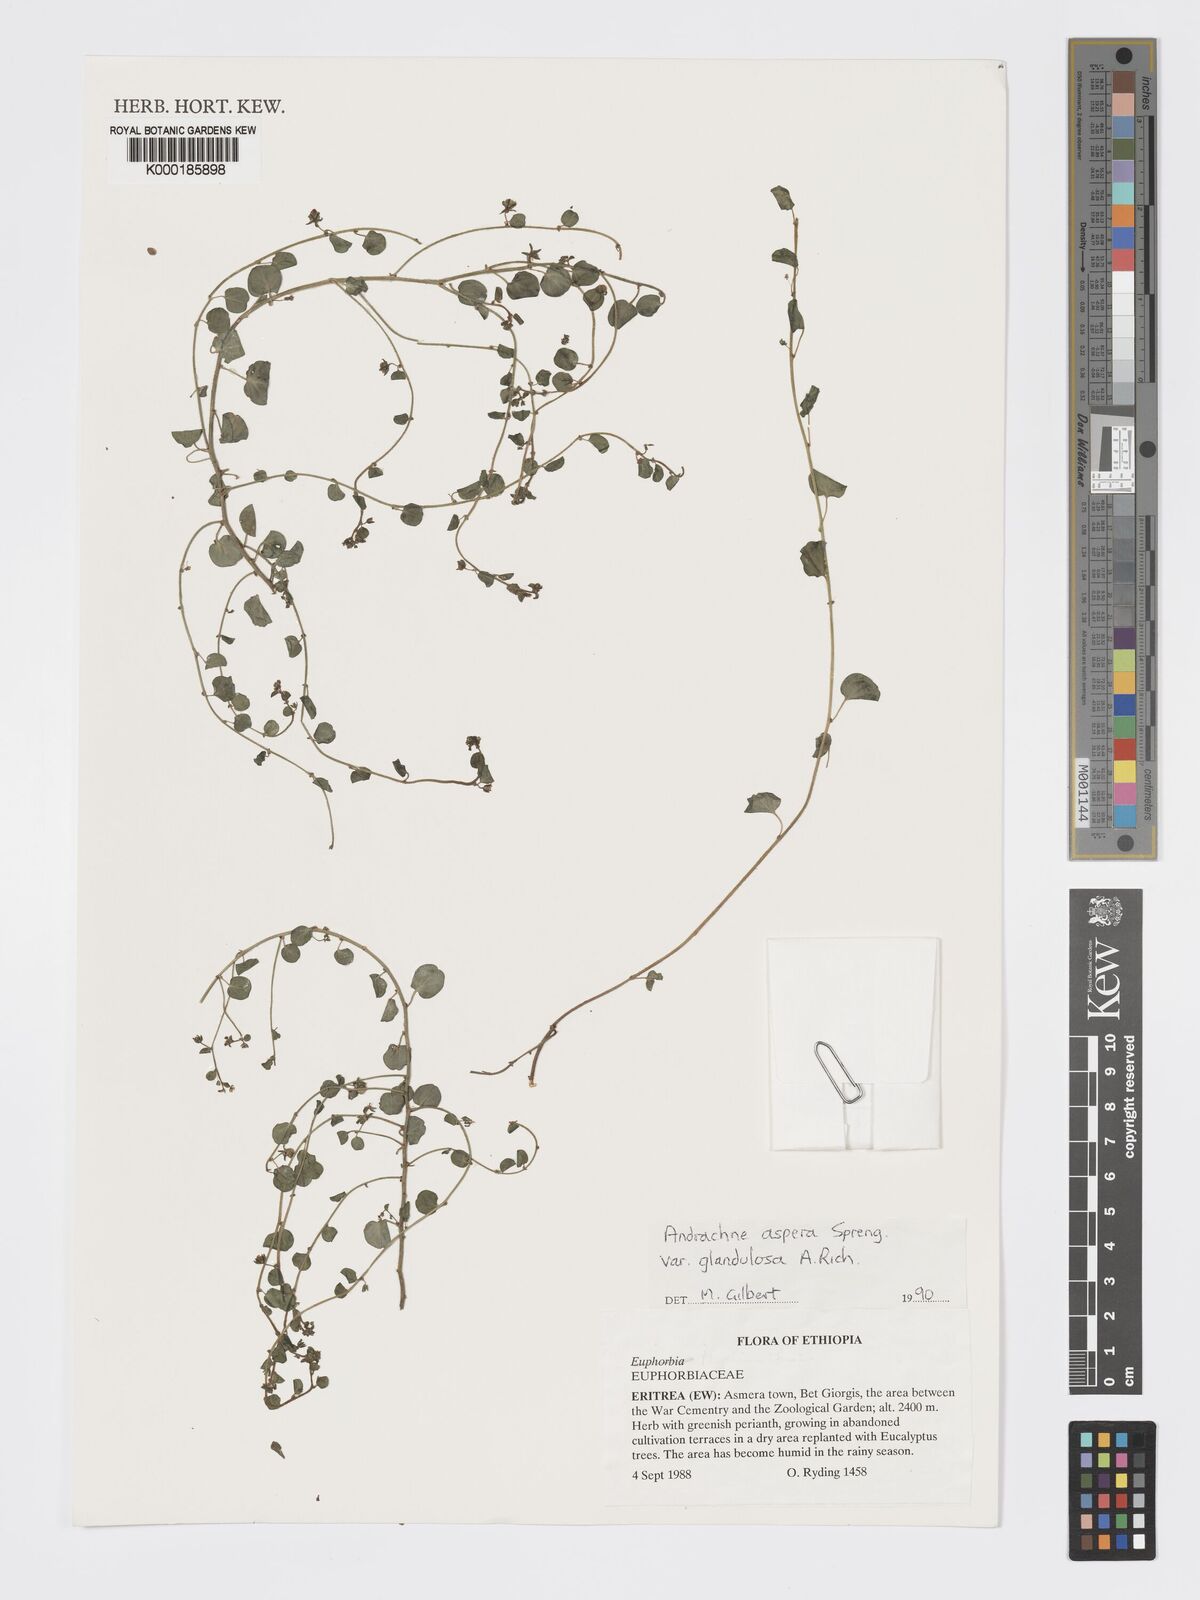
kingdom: Plantae
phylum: Tracheophyta
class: Magnoliopsida
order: Malpighiales
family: Phyllanthaceae
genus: Andrachne
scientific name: Andrachne aspera
